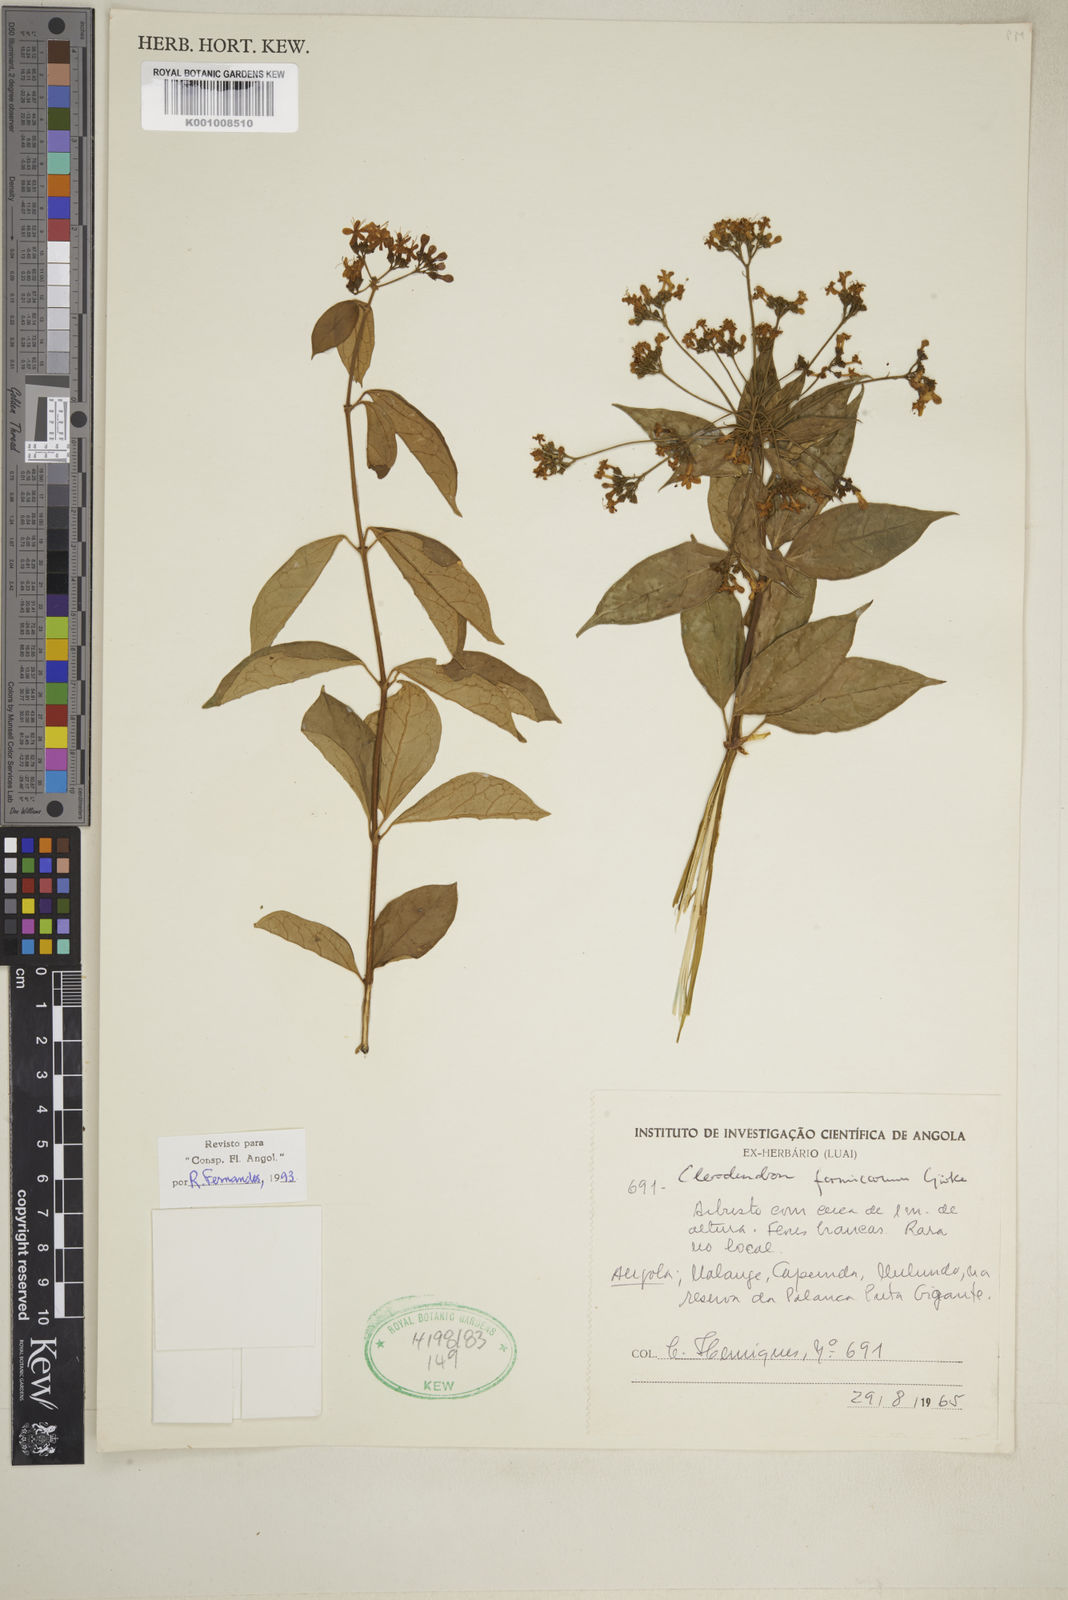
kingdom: Plantae
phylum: Tracheophyta
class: Magnoliopsida
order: Lamiales
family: Lamiaceae
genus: Clerodendrum
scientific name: Clerodendrum
